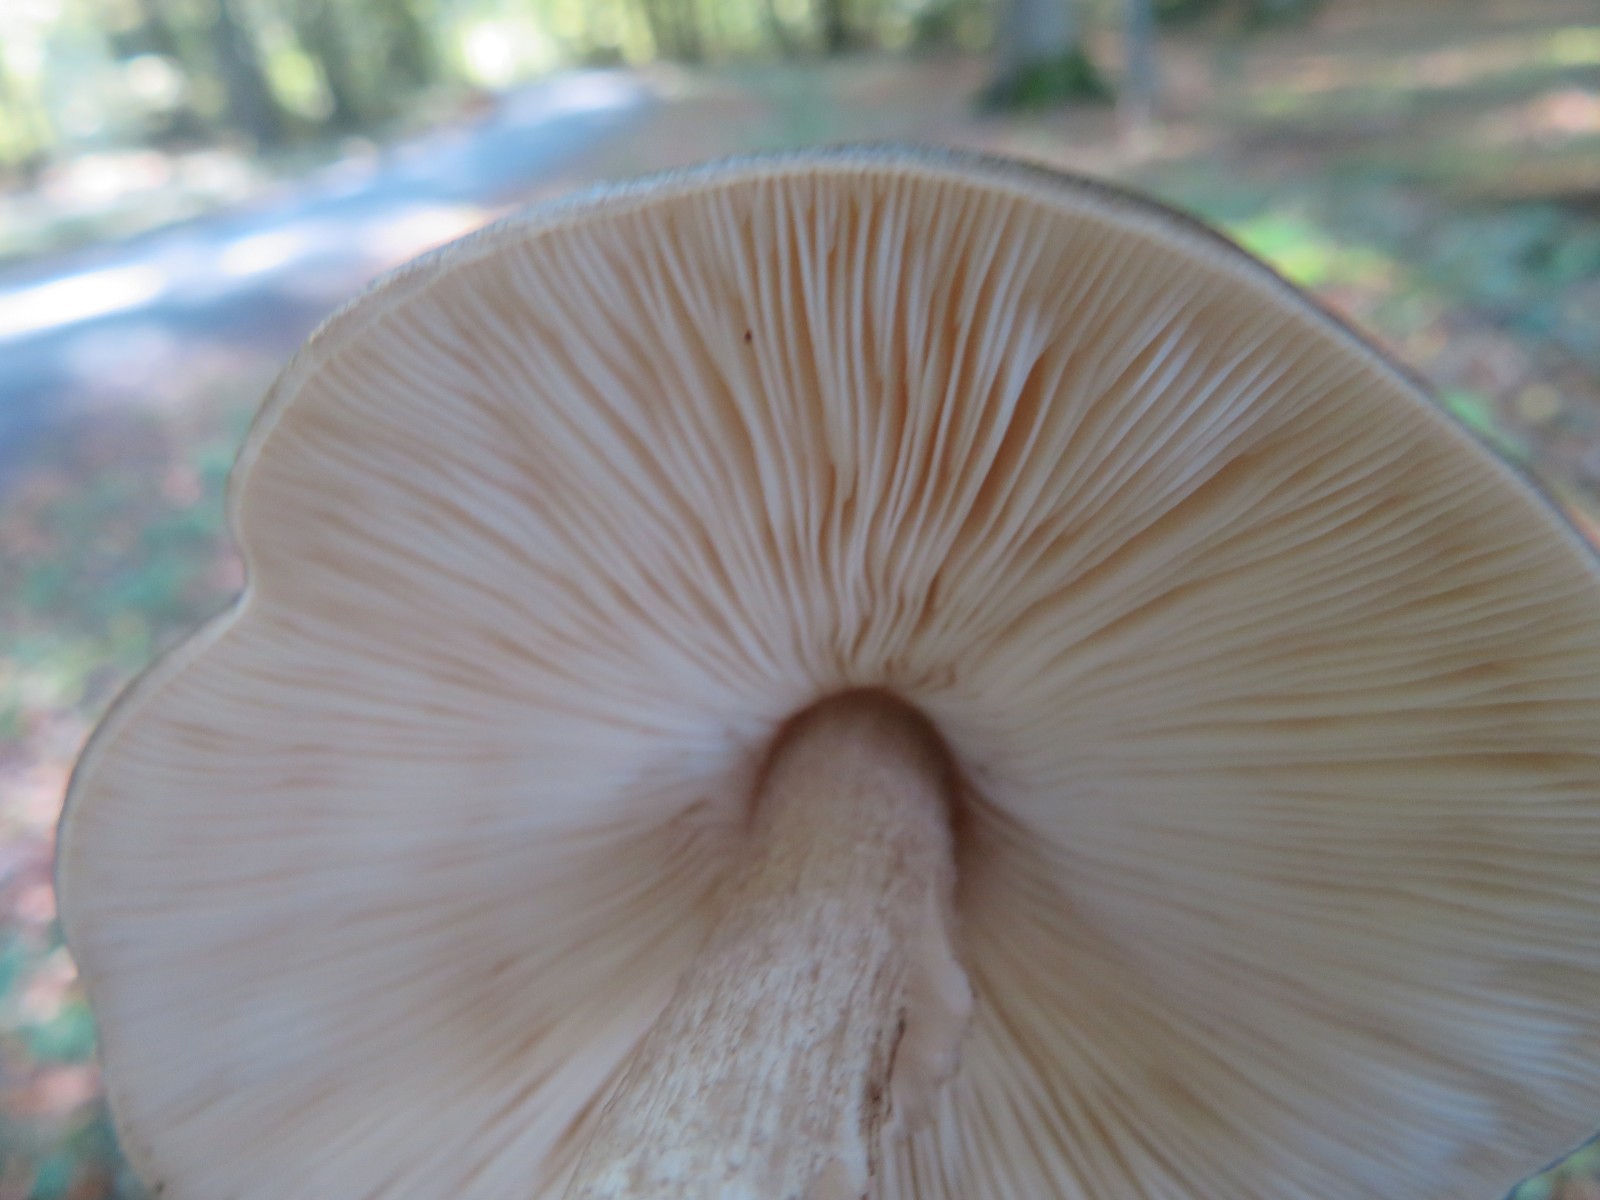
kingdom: Fungi
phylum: Basidiomycota
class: Agaricomycetes
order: Agaricales
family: Pluteaceae
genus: Pluteus
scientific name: Pluteus cervinus
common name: sodfarvet skærmhat
